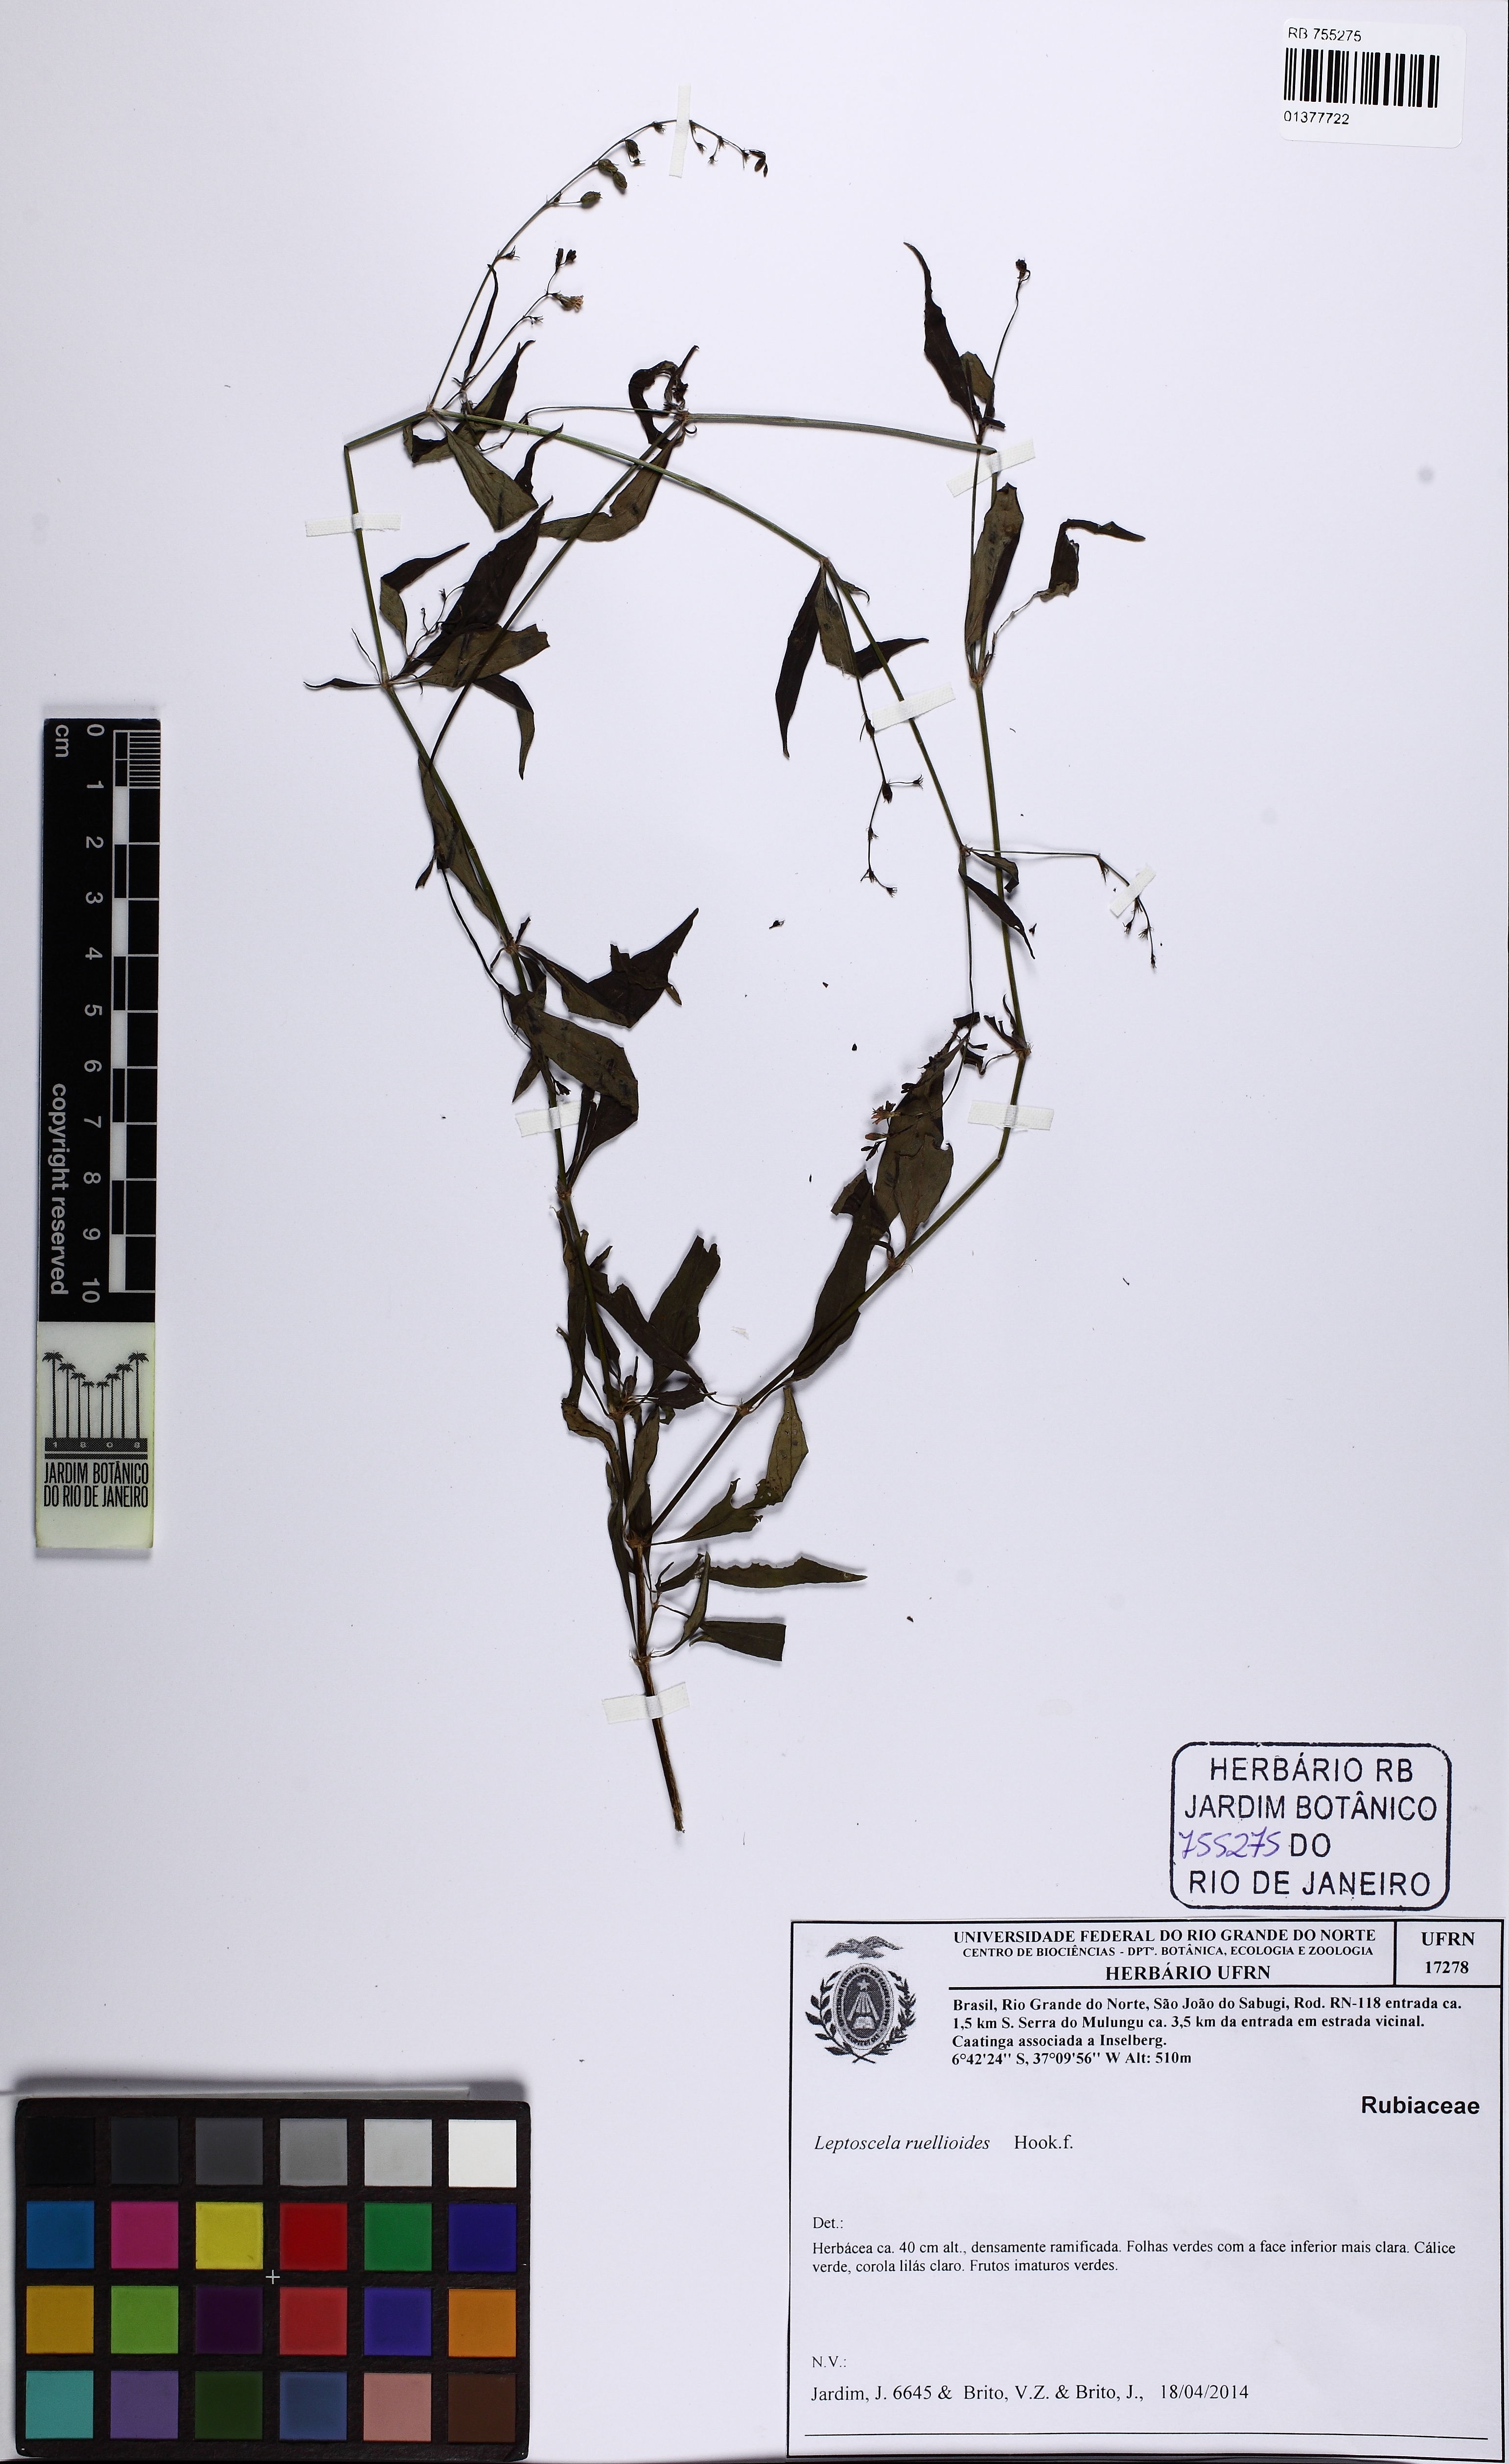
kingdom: Plantae
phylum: Tracheophyta
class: Magnoliopsida
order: Gentianales
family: Rubiaceae
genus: Leptoscela
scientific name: Leptoscela ruellioides
